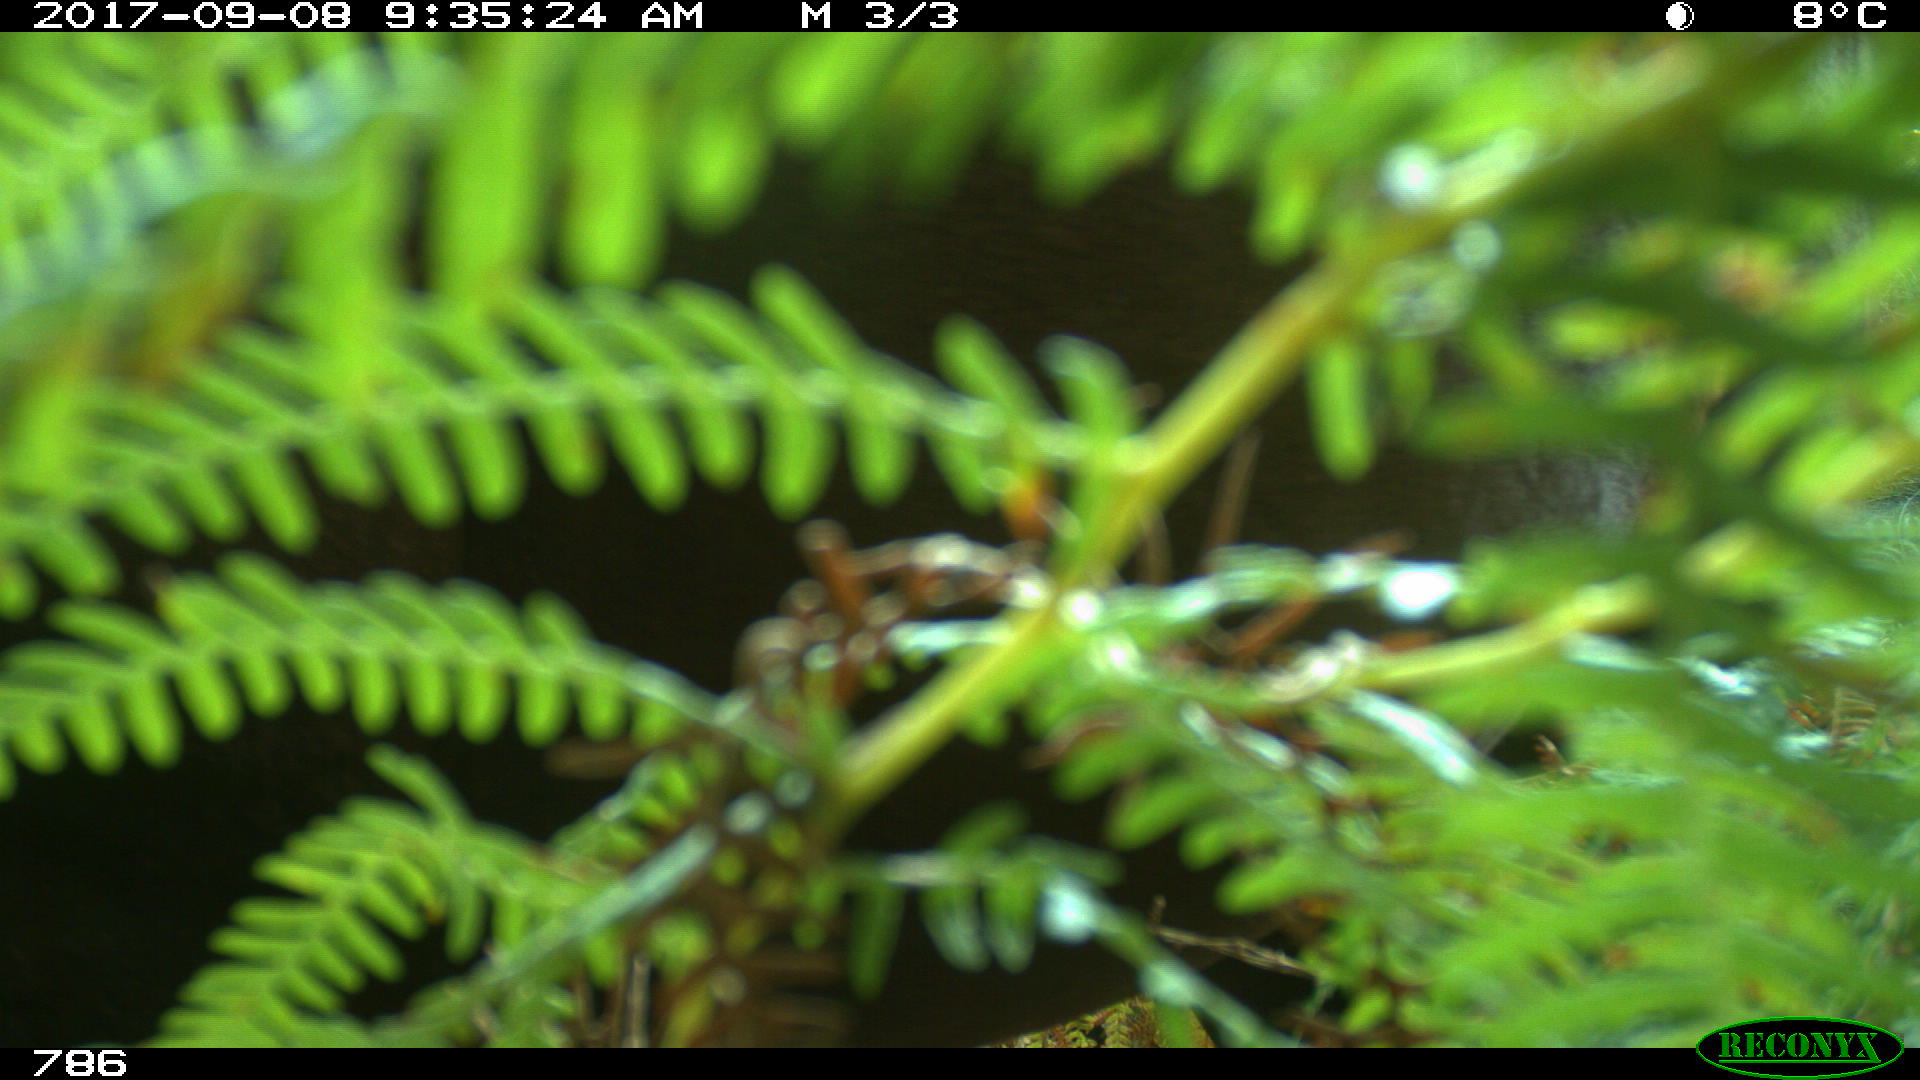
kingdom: Animalia
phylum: Chordata
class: Mammalia
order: Perissodactyla
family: Equidae
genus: Equus
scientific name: Equus caballus
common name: Horse
